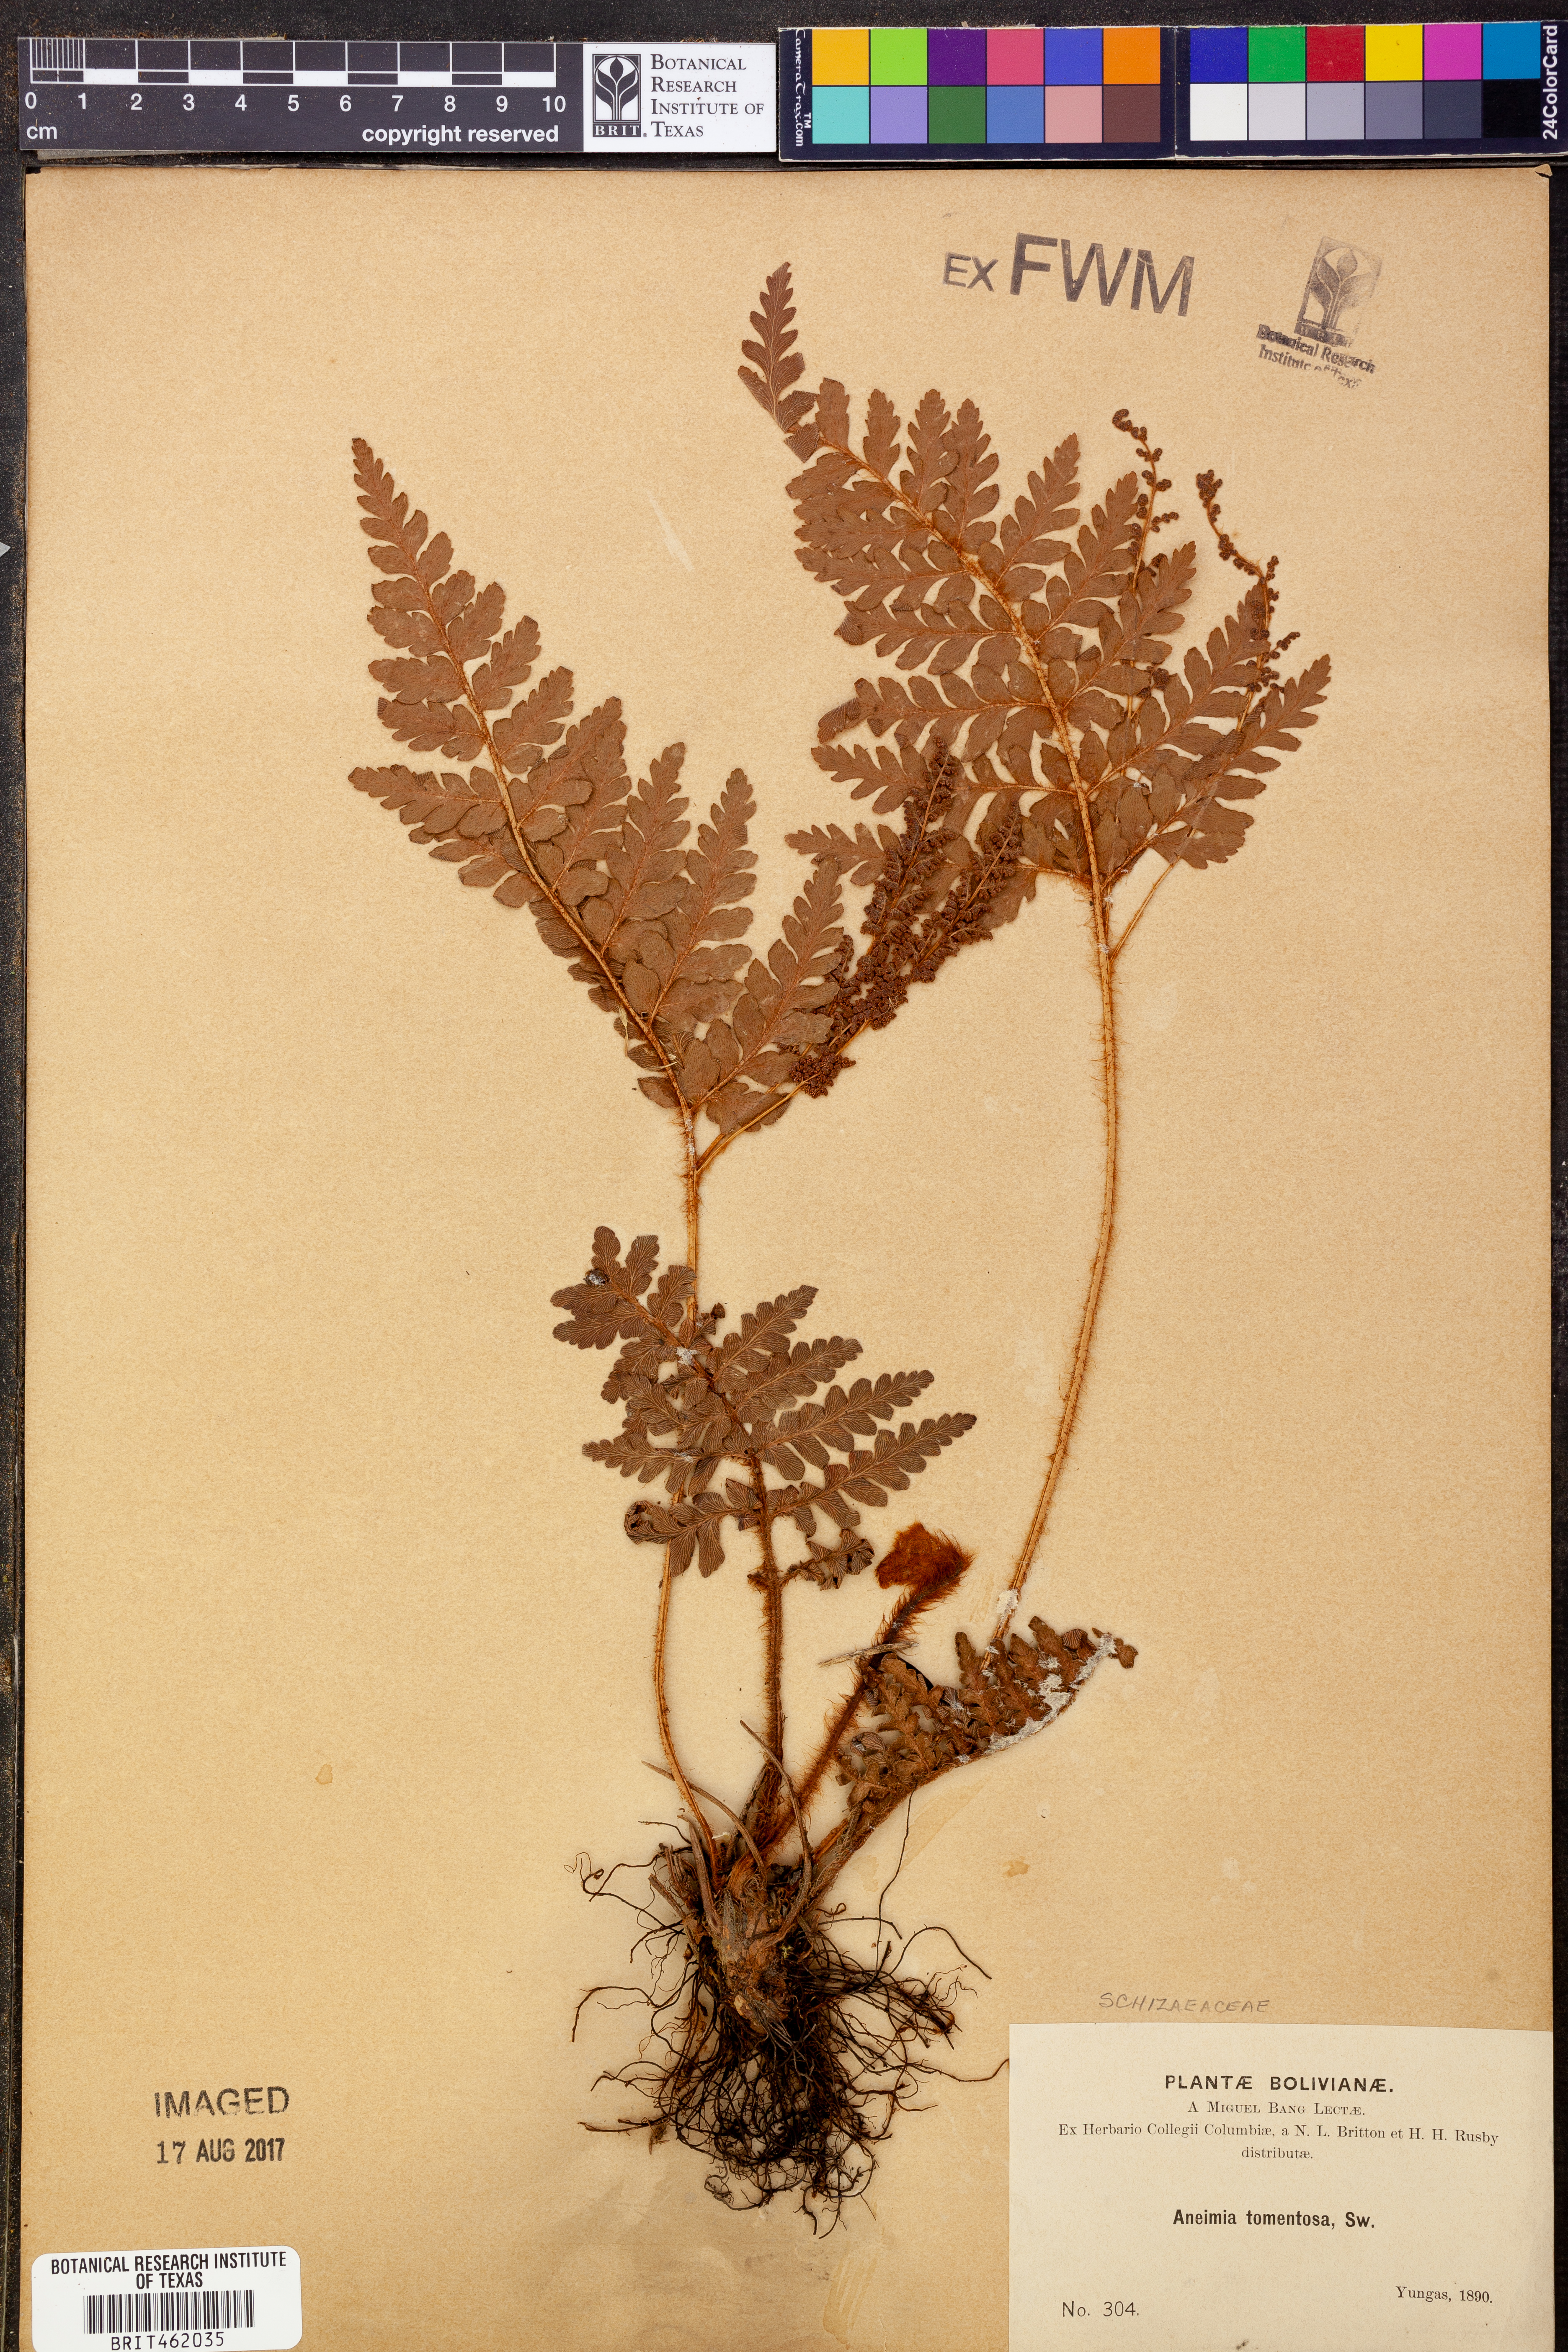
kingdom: Plantae
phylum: Tracheophyta
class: Polypodiopsida
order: Schizaeales
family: Anemiaceae
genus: Anemia
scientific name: Anemia tomentosa
